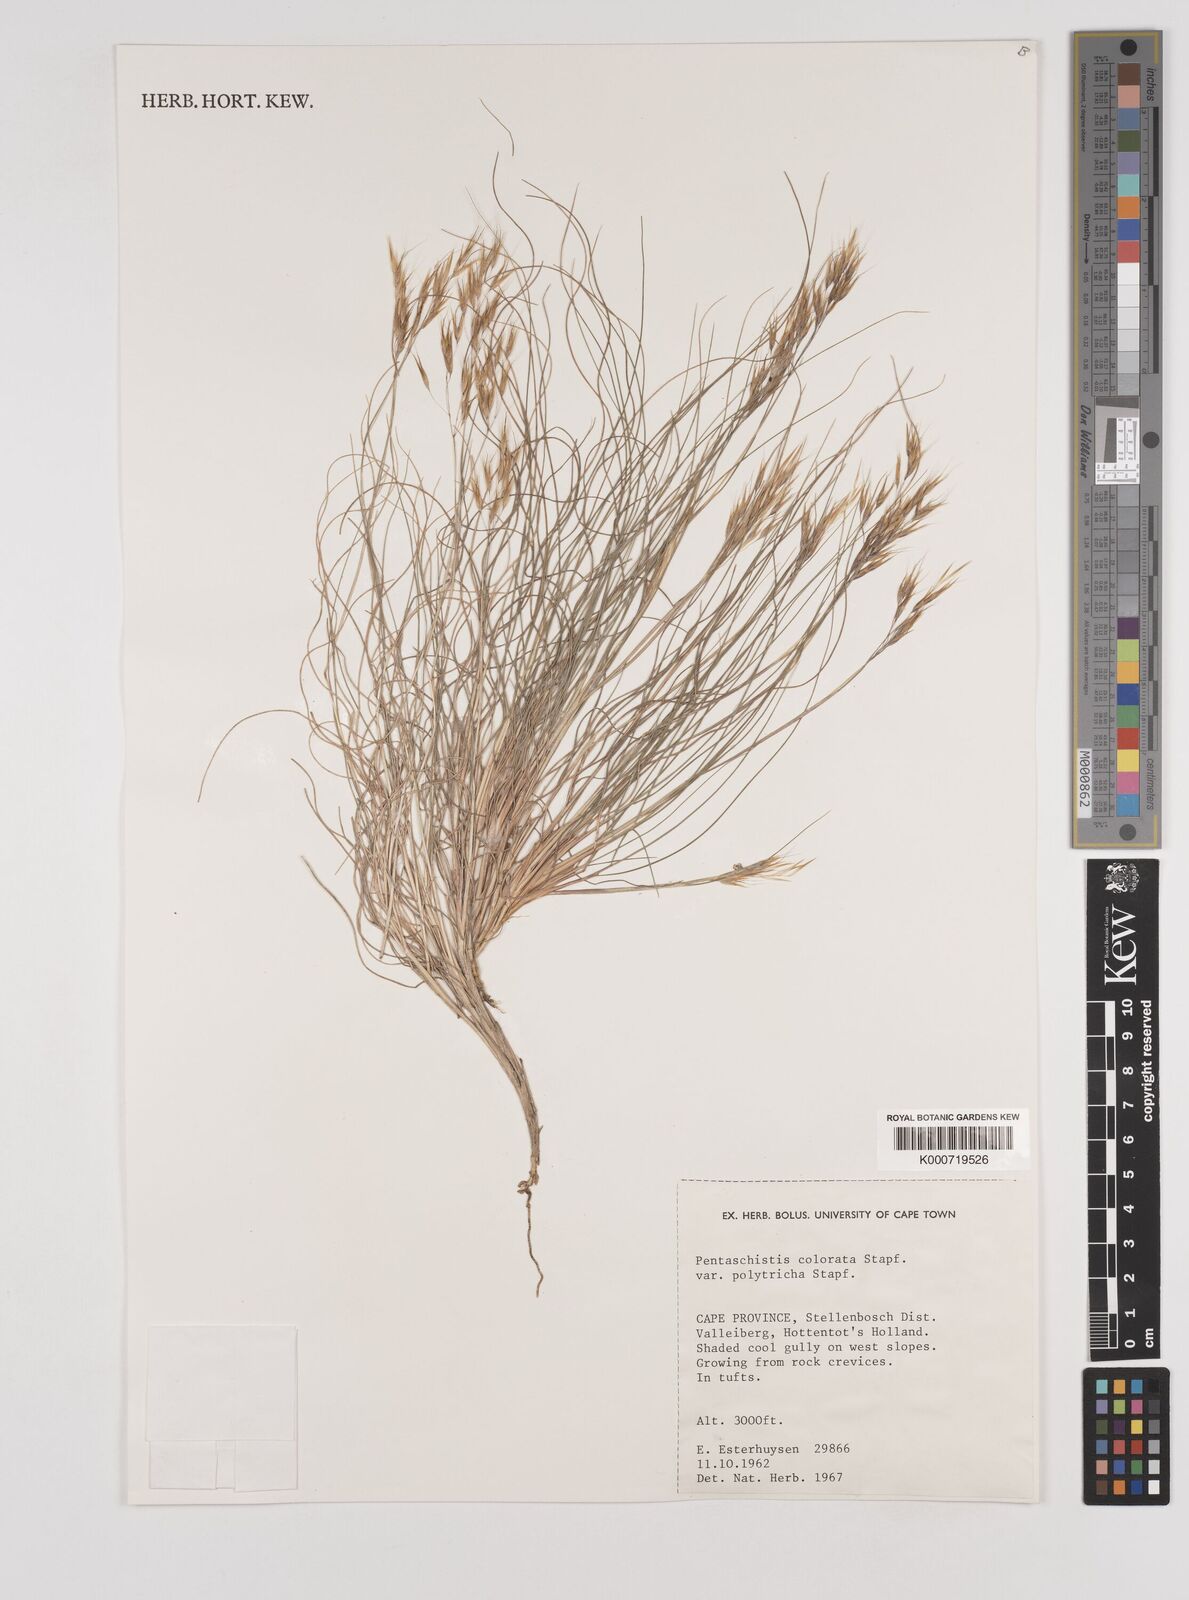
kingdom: Plantae
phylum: Tracheophyta
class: Liliopsida
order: Poales
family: Poaceae
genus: Pentameris
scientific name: Pentameris colorata
